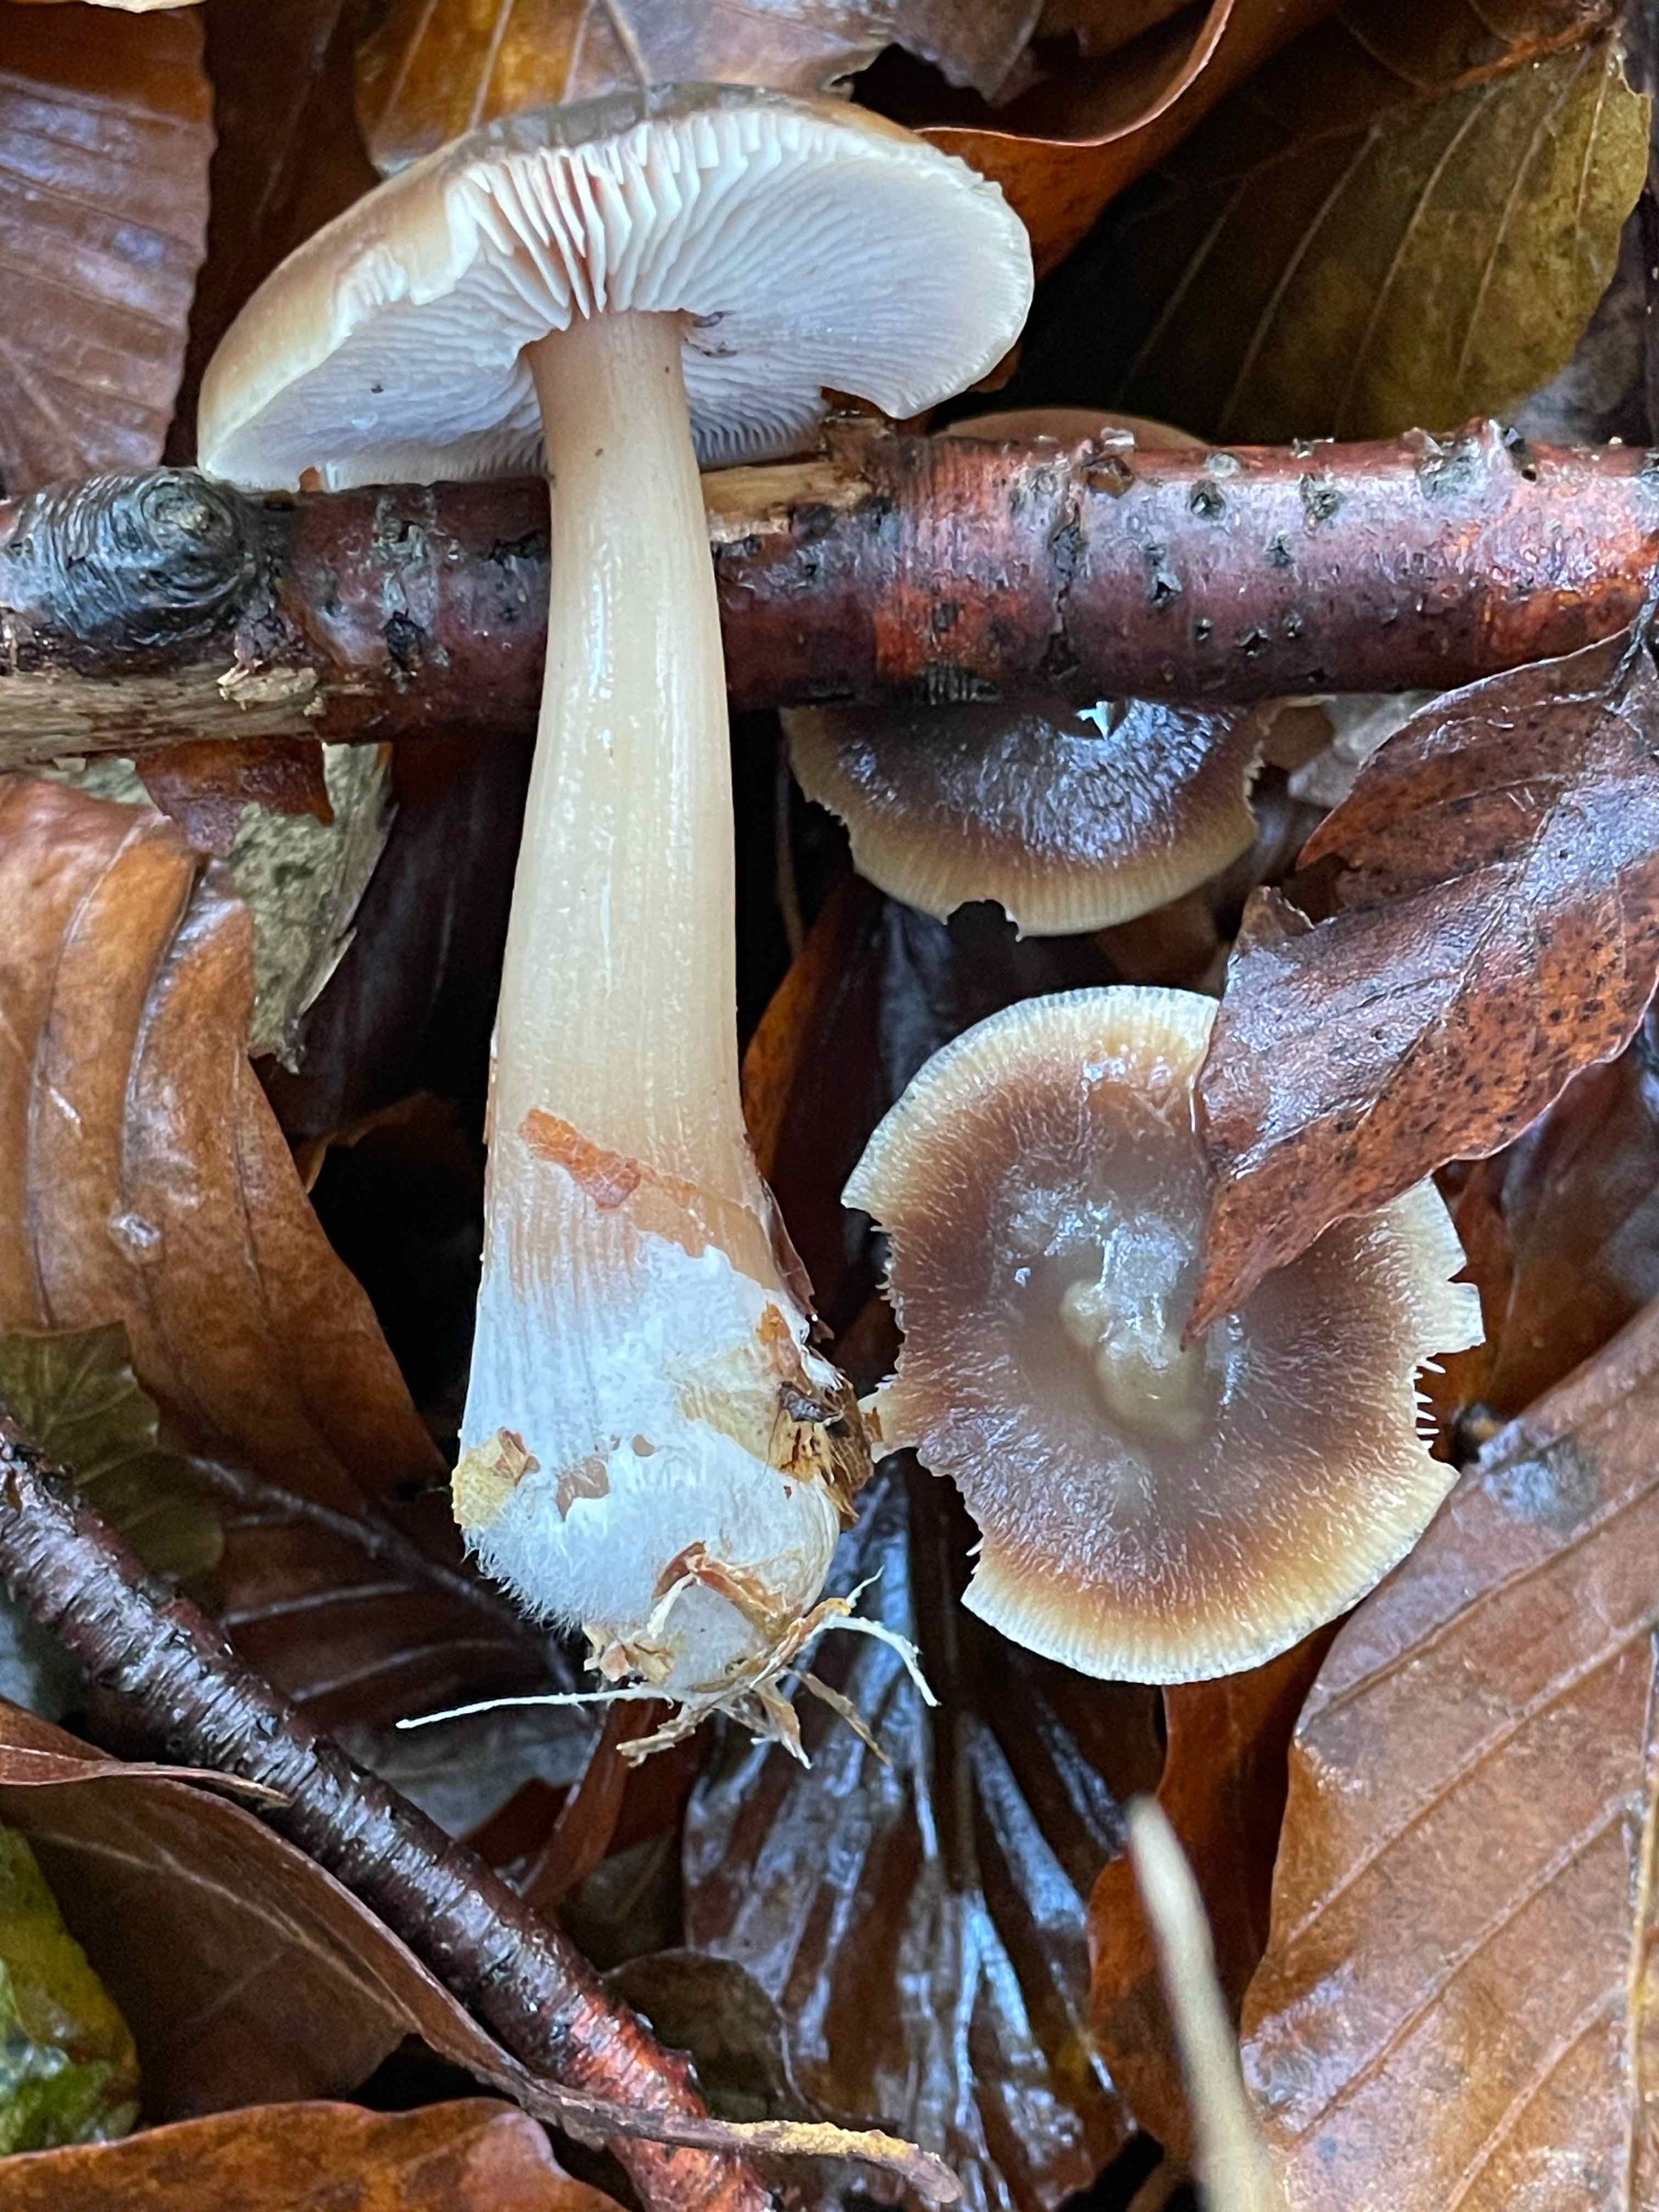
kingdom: Fungi
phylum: Basidiomycota
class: Agaricomycetes
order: Agaricales
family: Omphalotaceae
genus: Rhodocollybia
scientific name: Rhodocollybia asema
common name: horngrå fladhat
